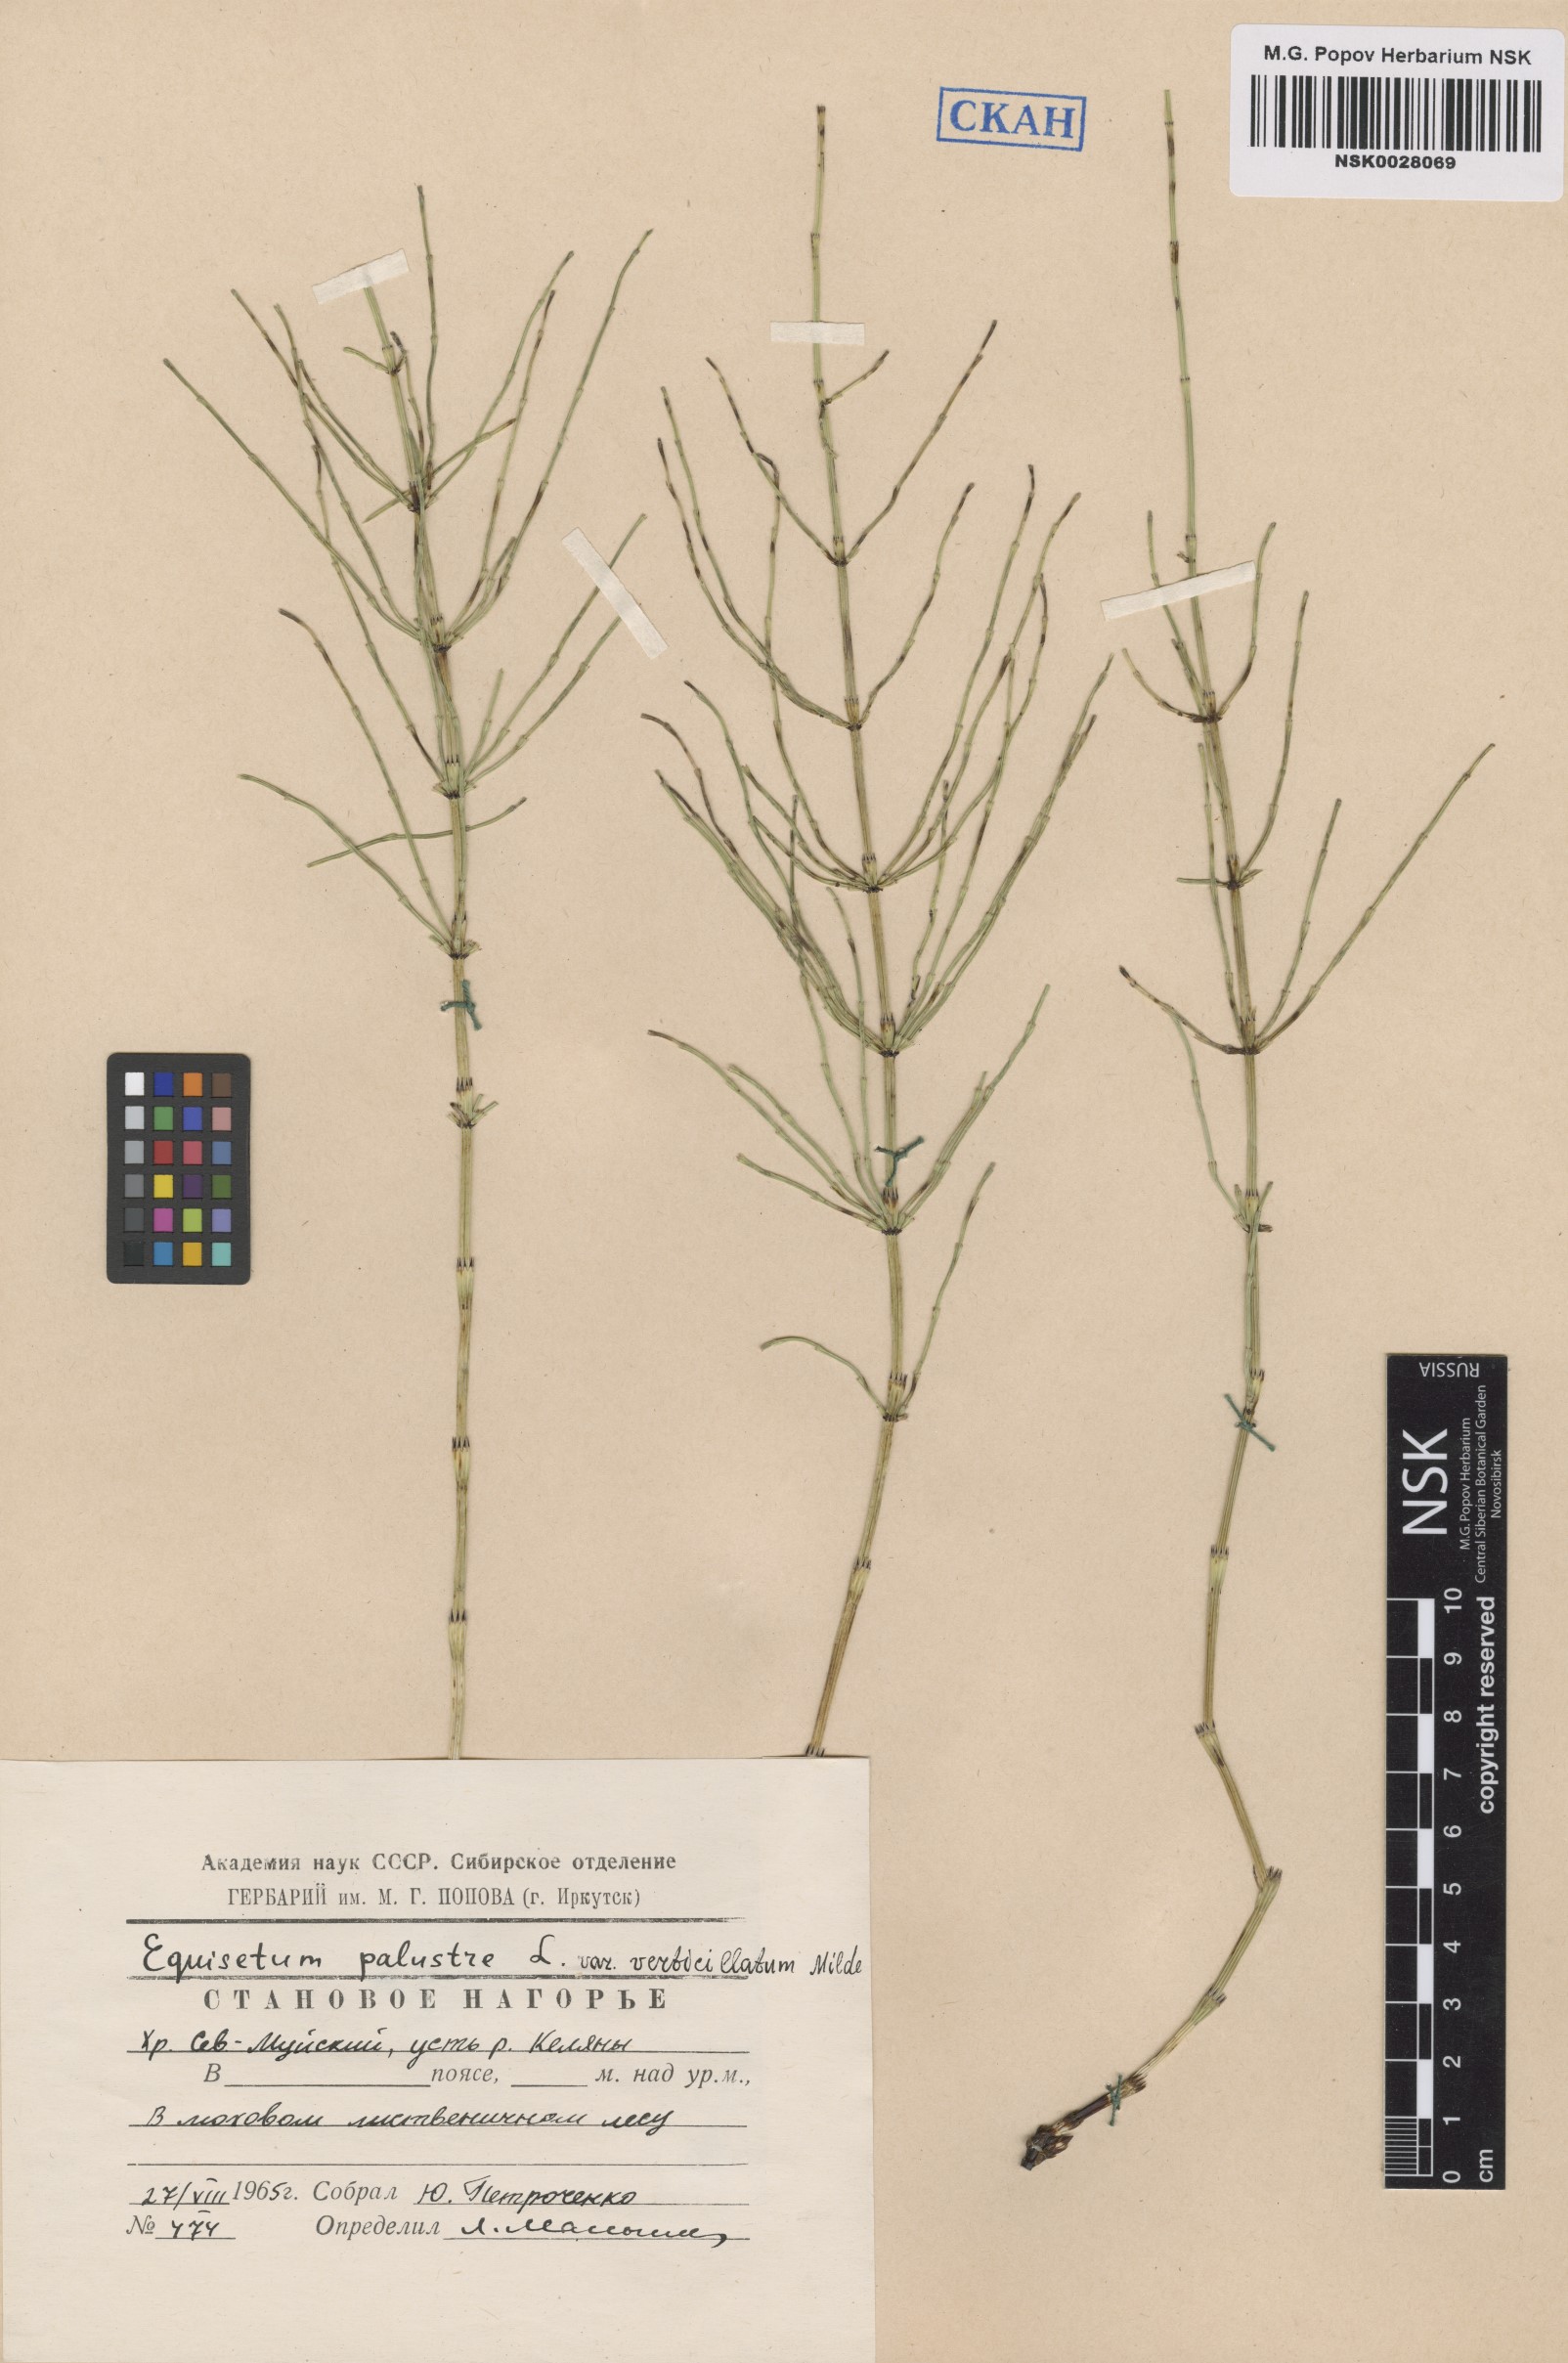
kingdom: Plantae
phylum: Tracheophyta
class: Polypodiopsida
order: Equisetales
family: Equisetaceae
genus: Equisetum
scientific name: Equisetum palustre
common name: Marsh horsetail
